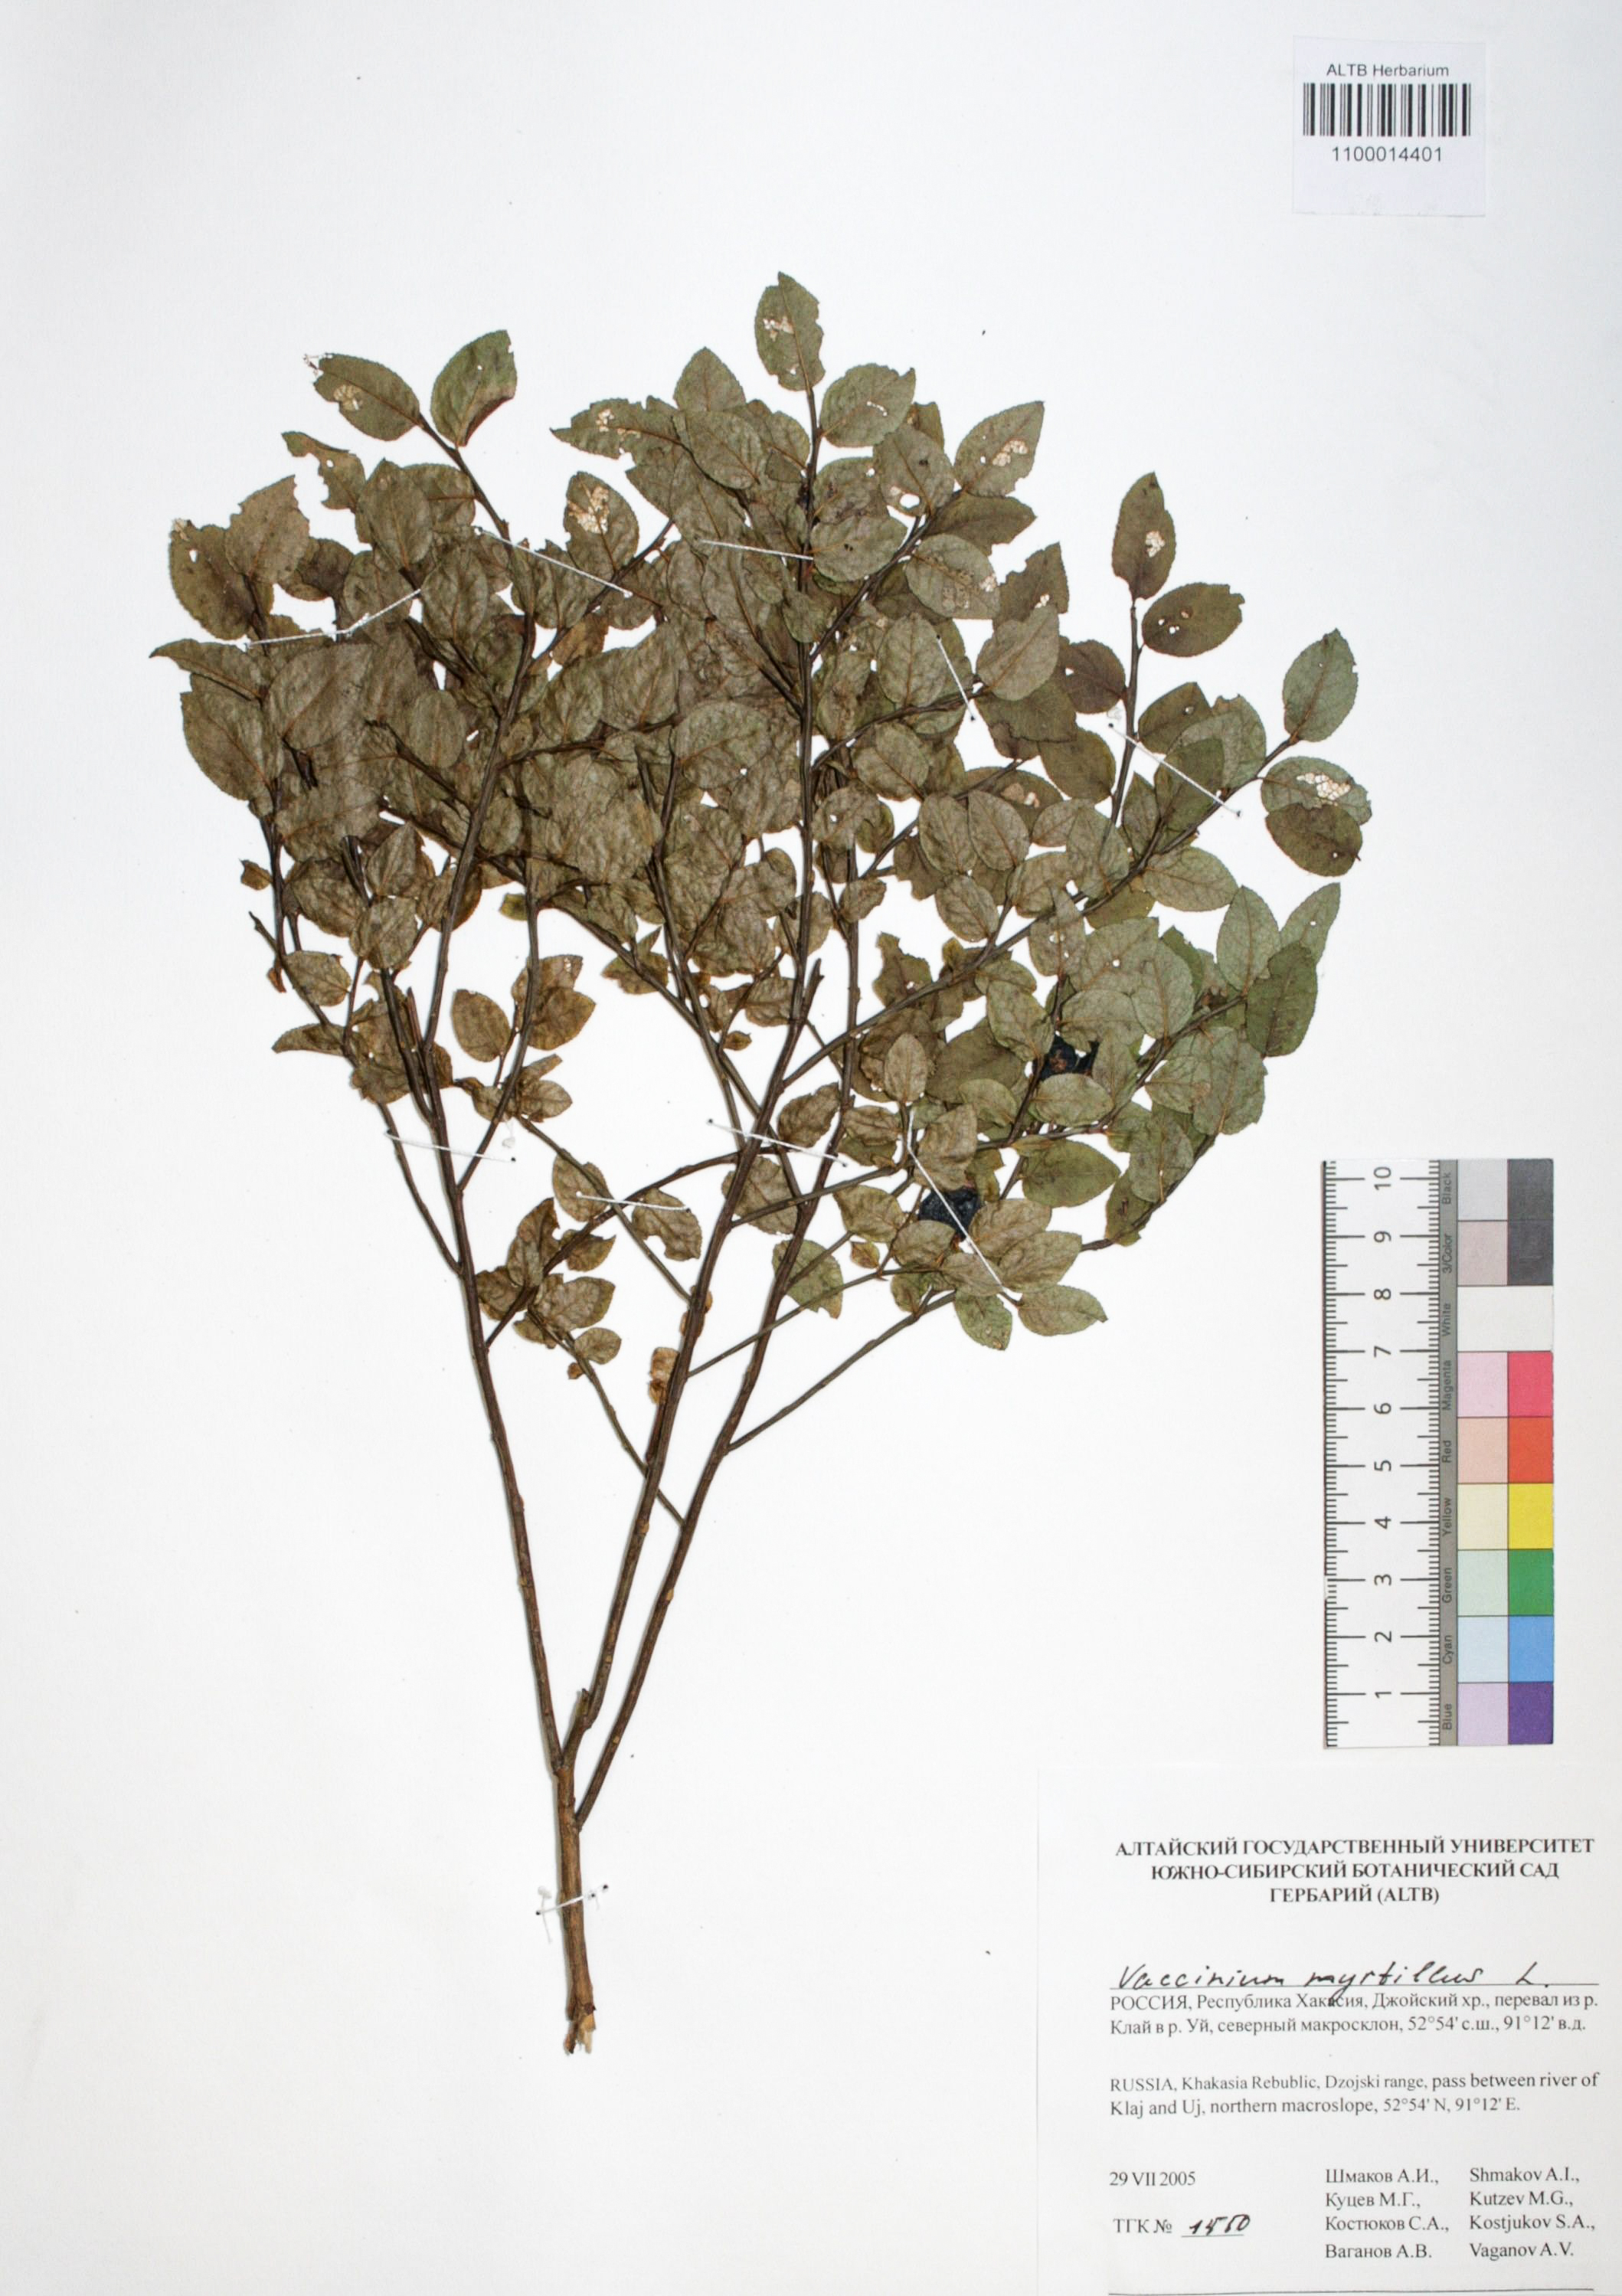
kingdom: Plantae
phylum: Tracheophyta
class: Magnoliopsida
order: Ericales
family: Ericaceae
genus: Vaccinium
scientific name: Vaccinium myrtillus
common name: Bilberry
